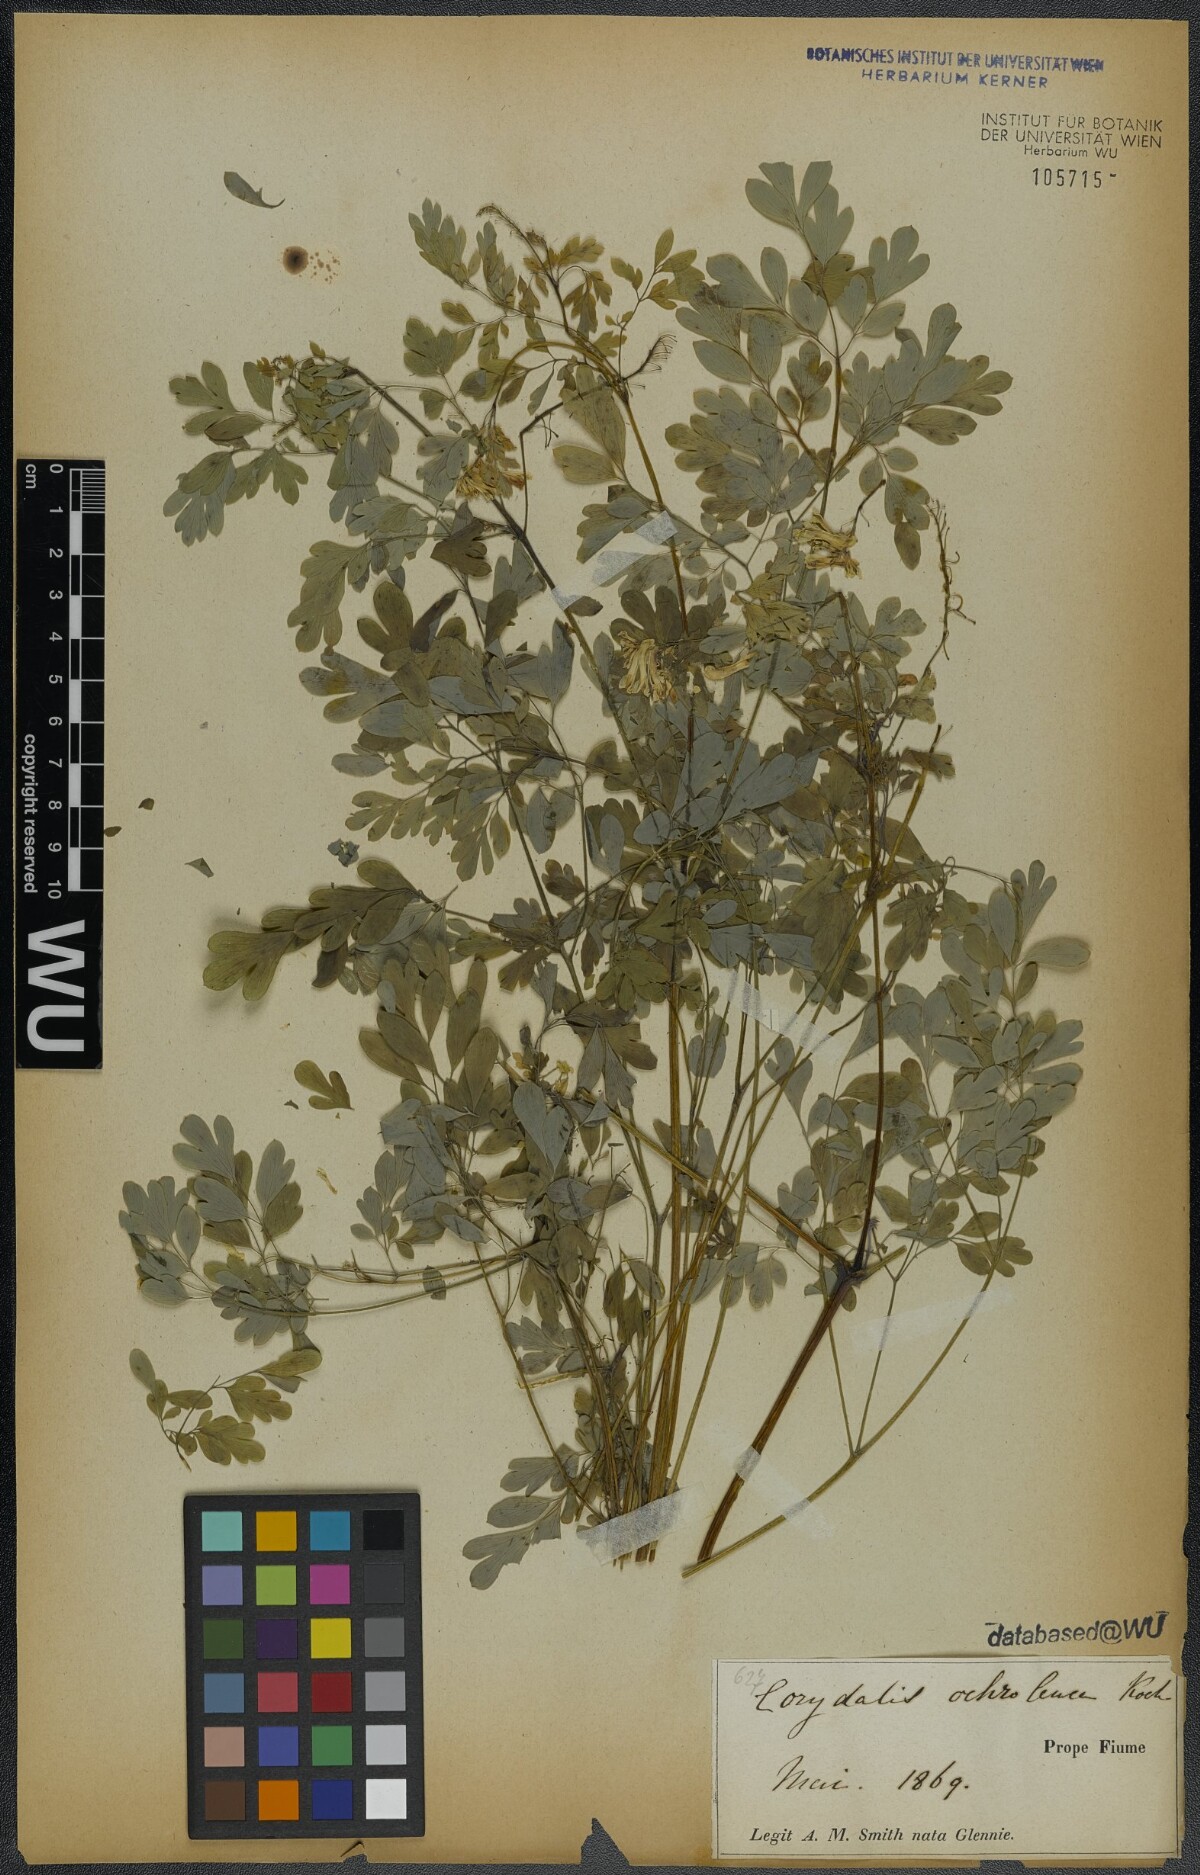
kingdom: Plantae
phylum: Tracheophyta
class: Magnoliopsida
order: Ranunculales
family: Papaveraceae
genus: Pseudofumaria
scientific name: Pseudofumaria alba
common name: Pale corydalis
